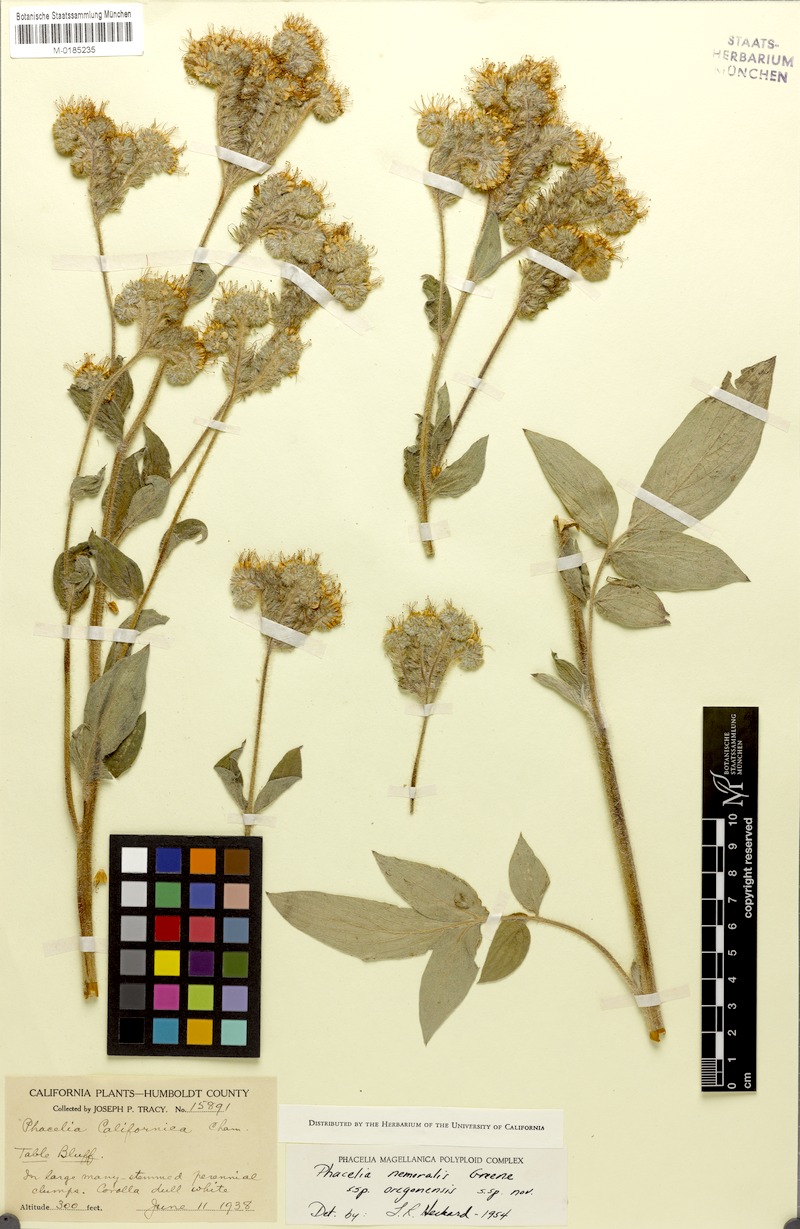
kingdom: Plantae
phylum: Tracheophyta
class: Magnoliopsida
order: Boraginales
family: Hydrophyllaceae
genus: Phacelia
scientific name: Phacelia nemoralis
